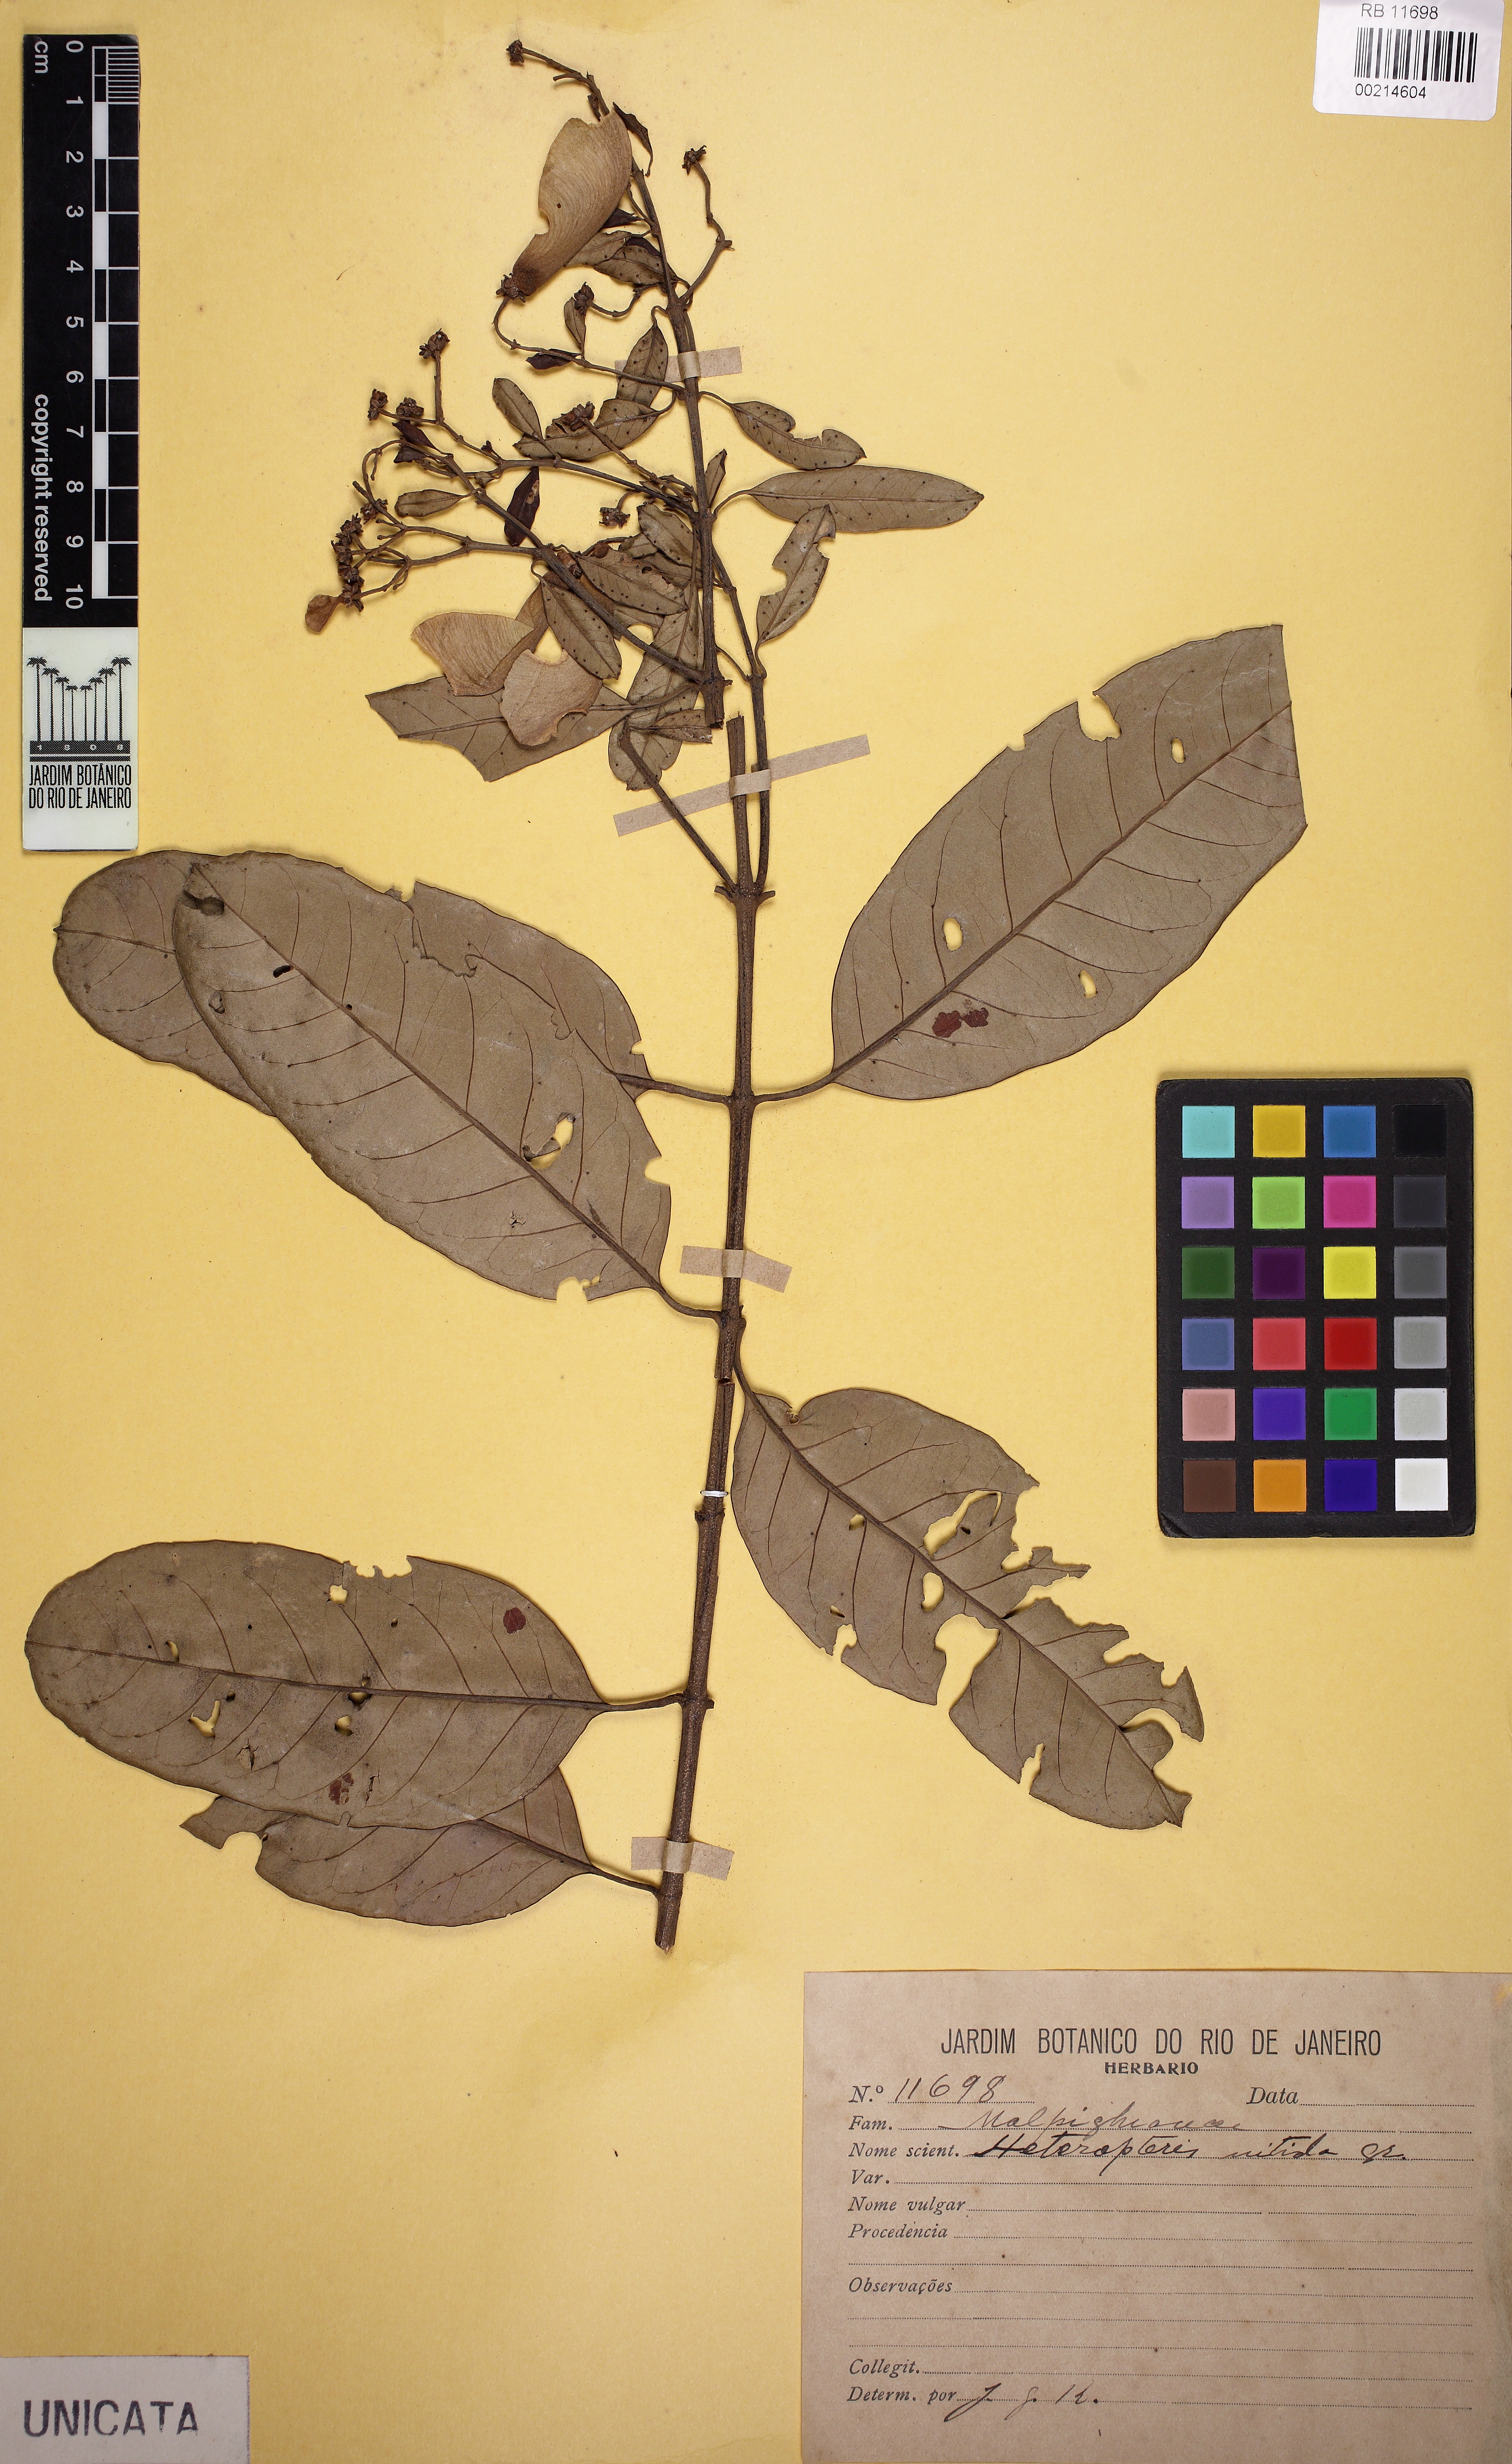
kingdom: Plantae
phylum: Tracheophyta
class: Magnoliopsida
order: Malpighiales
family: Malpighiaceae
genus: Heteropterys
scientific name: Heteropterys nitida
